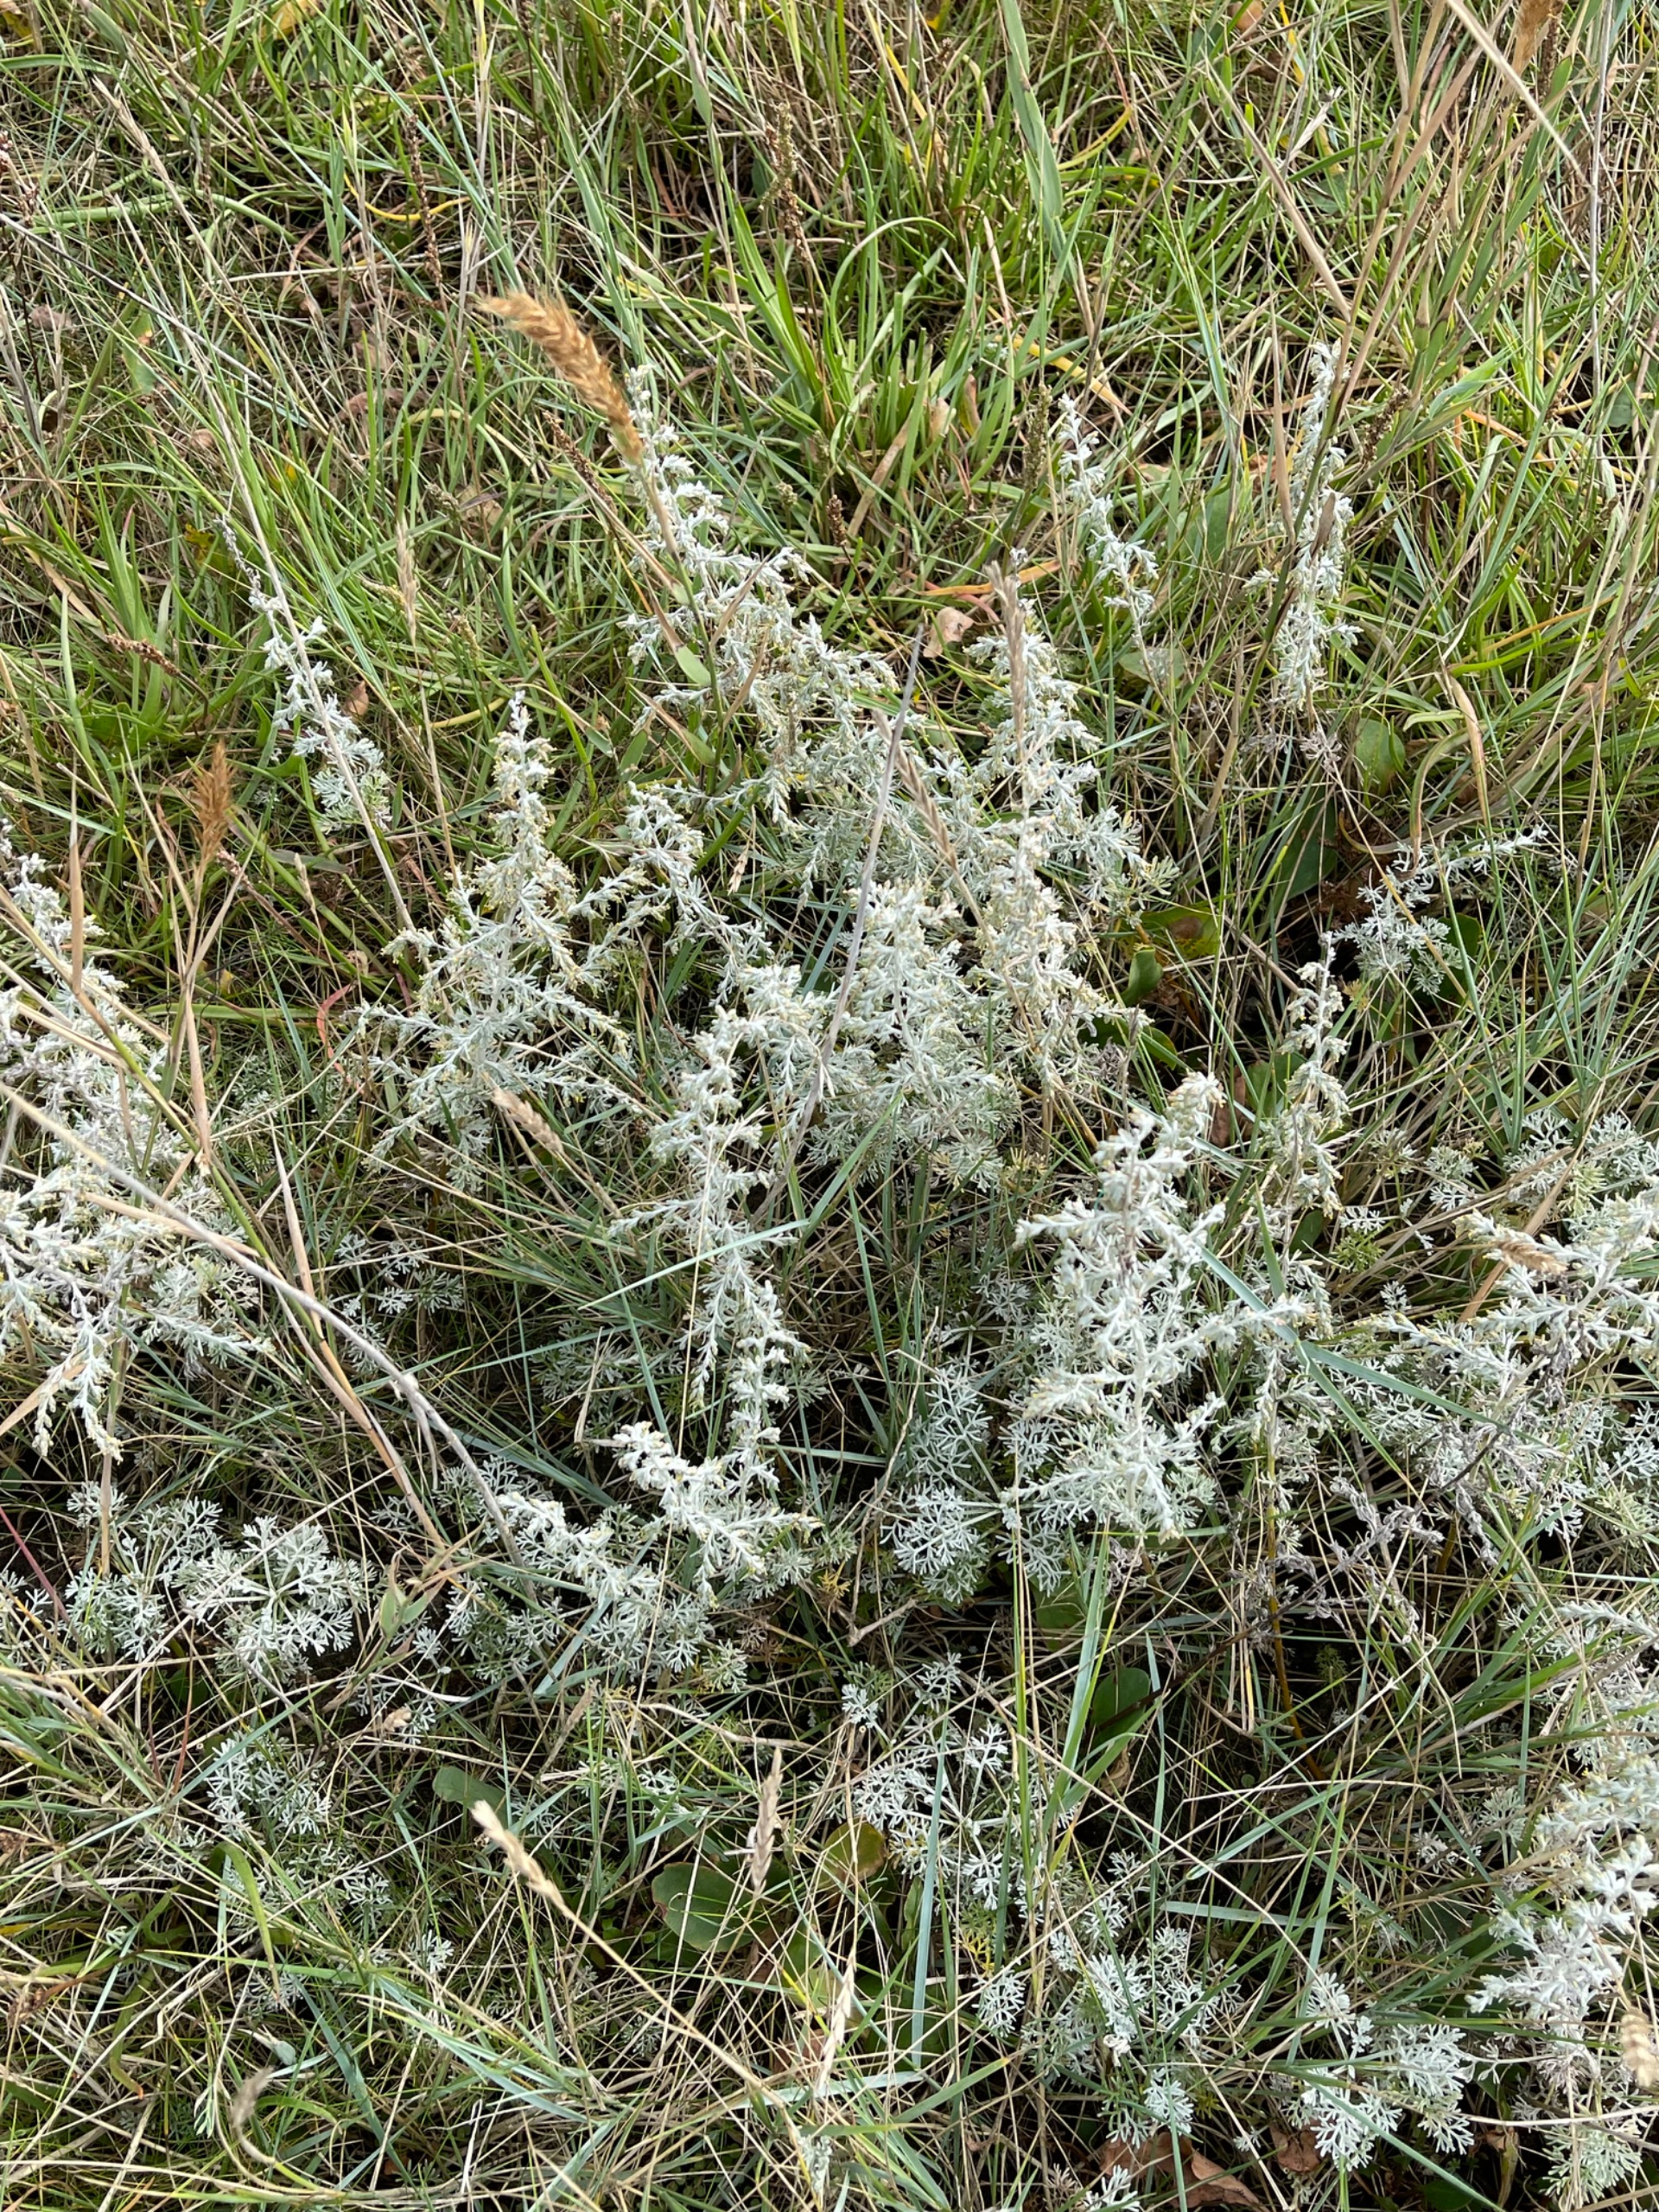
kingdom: Plantae
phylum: Tracheophyta
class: Magnoliopsida
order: Asterales
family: Asteraceae
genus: Artemisia
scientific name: Artemisia maritima
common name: Strandmalurt
